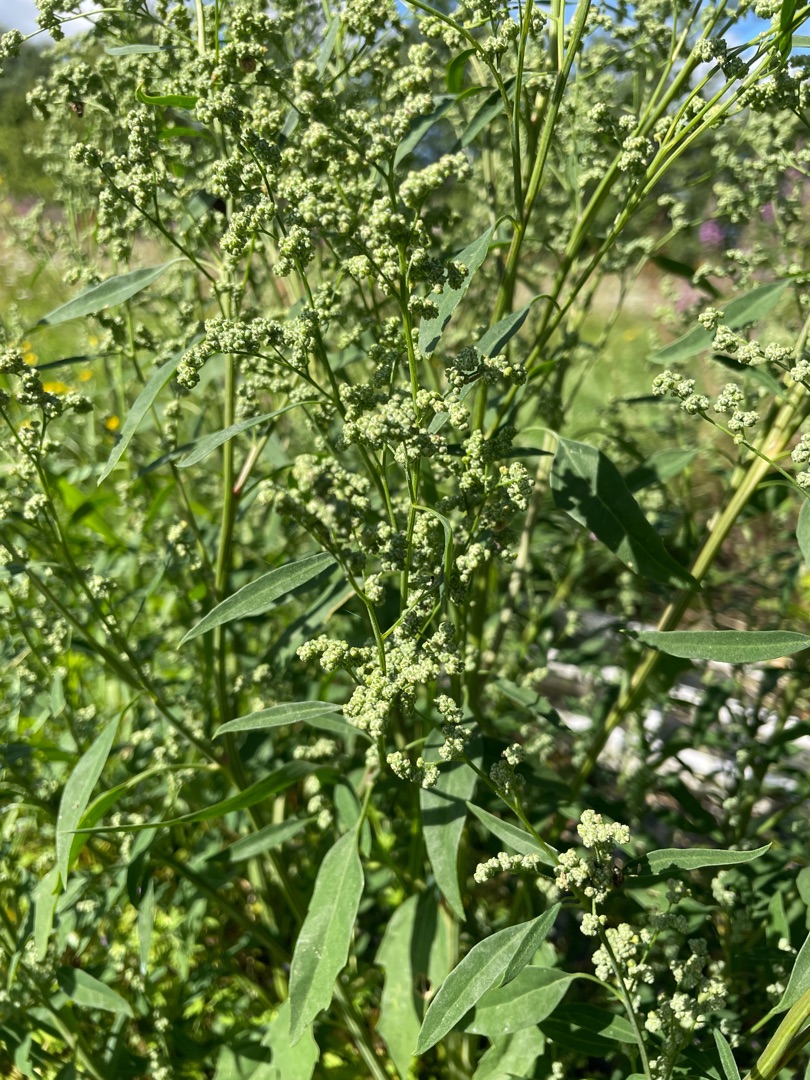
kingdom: Plantae
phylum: Tracheophyta
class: Magnoliopsida
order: Caryophyllales
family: Amaranthaceae
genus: Chenopodium
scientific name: Chenopodium pratericola
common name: Finbladet gåsefod
